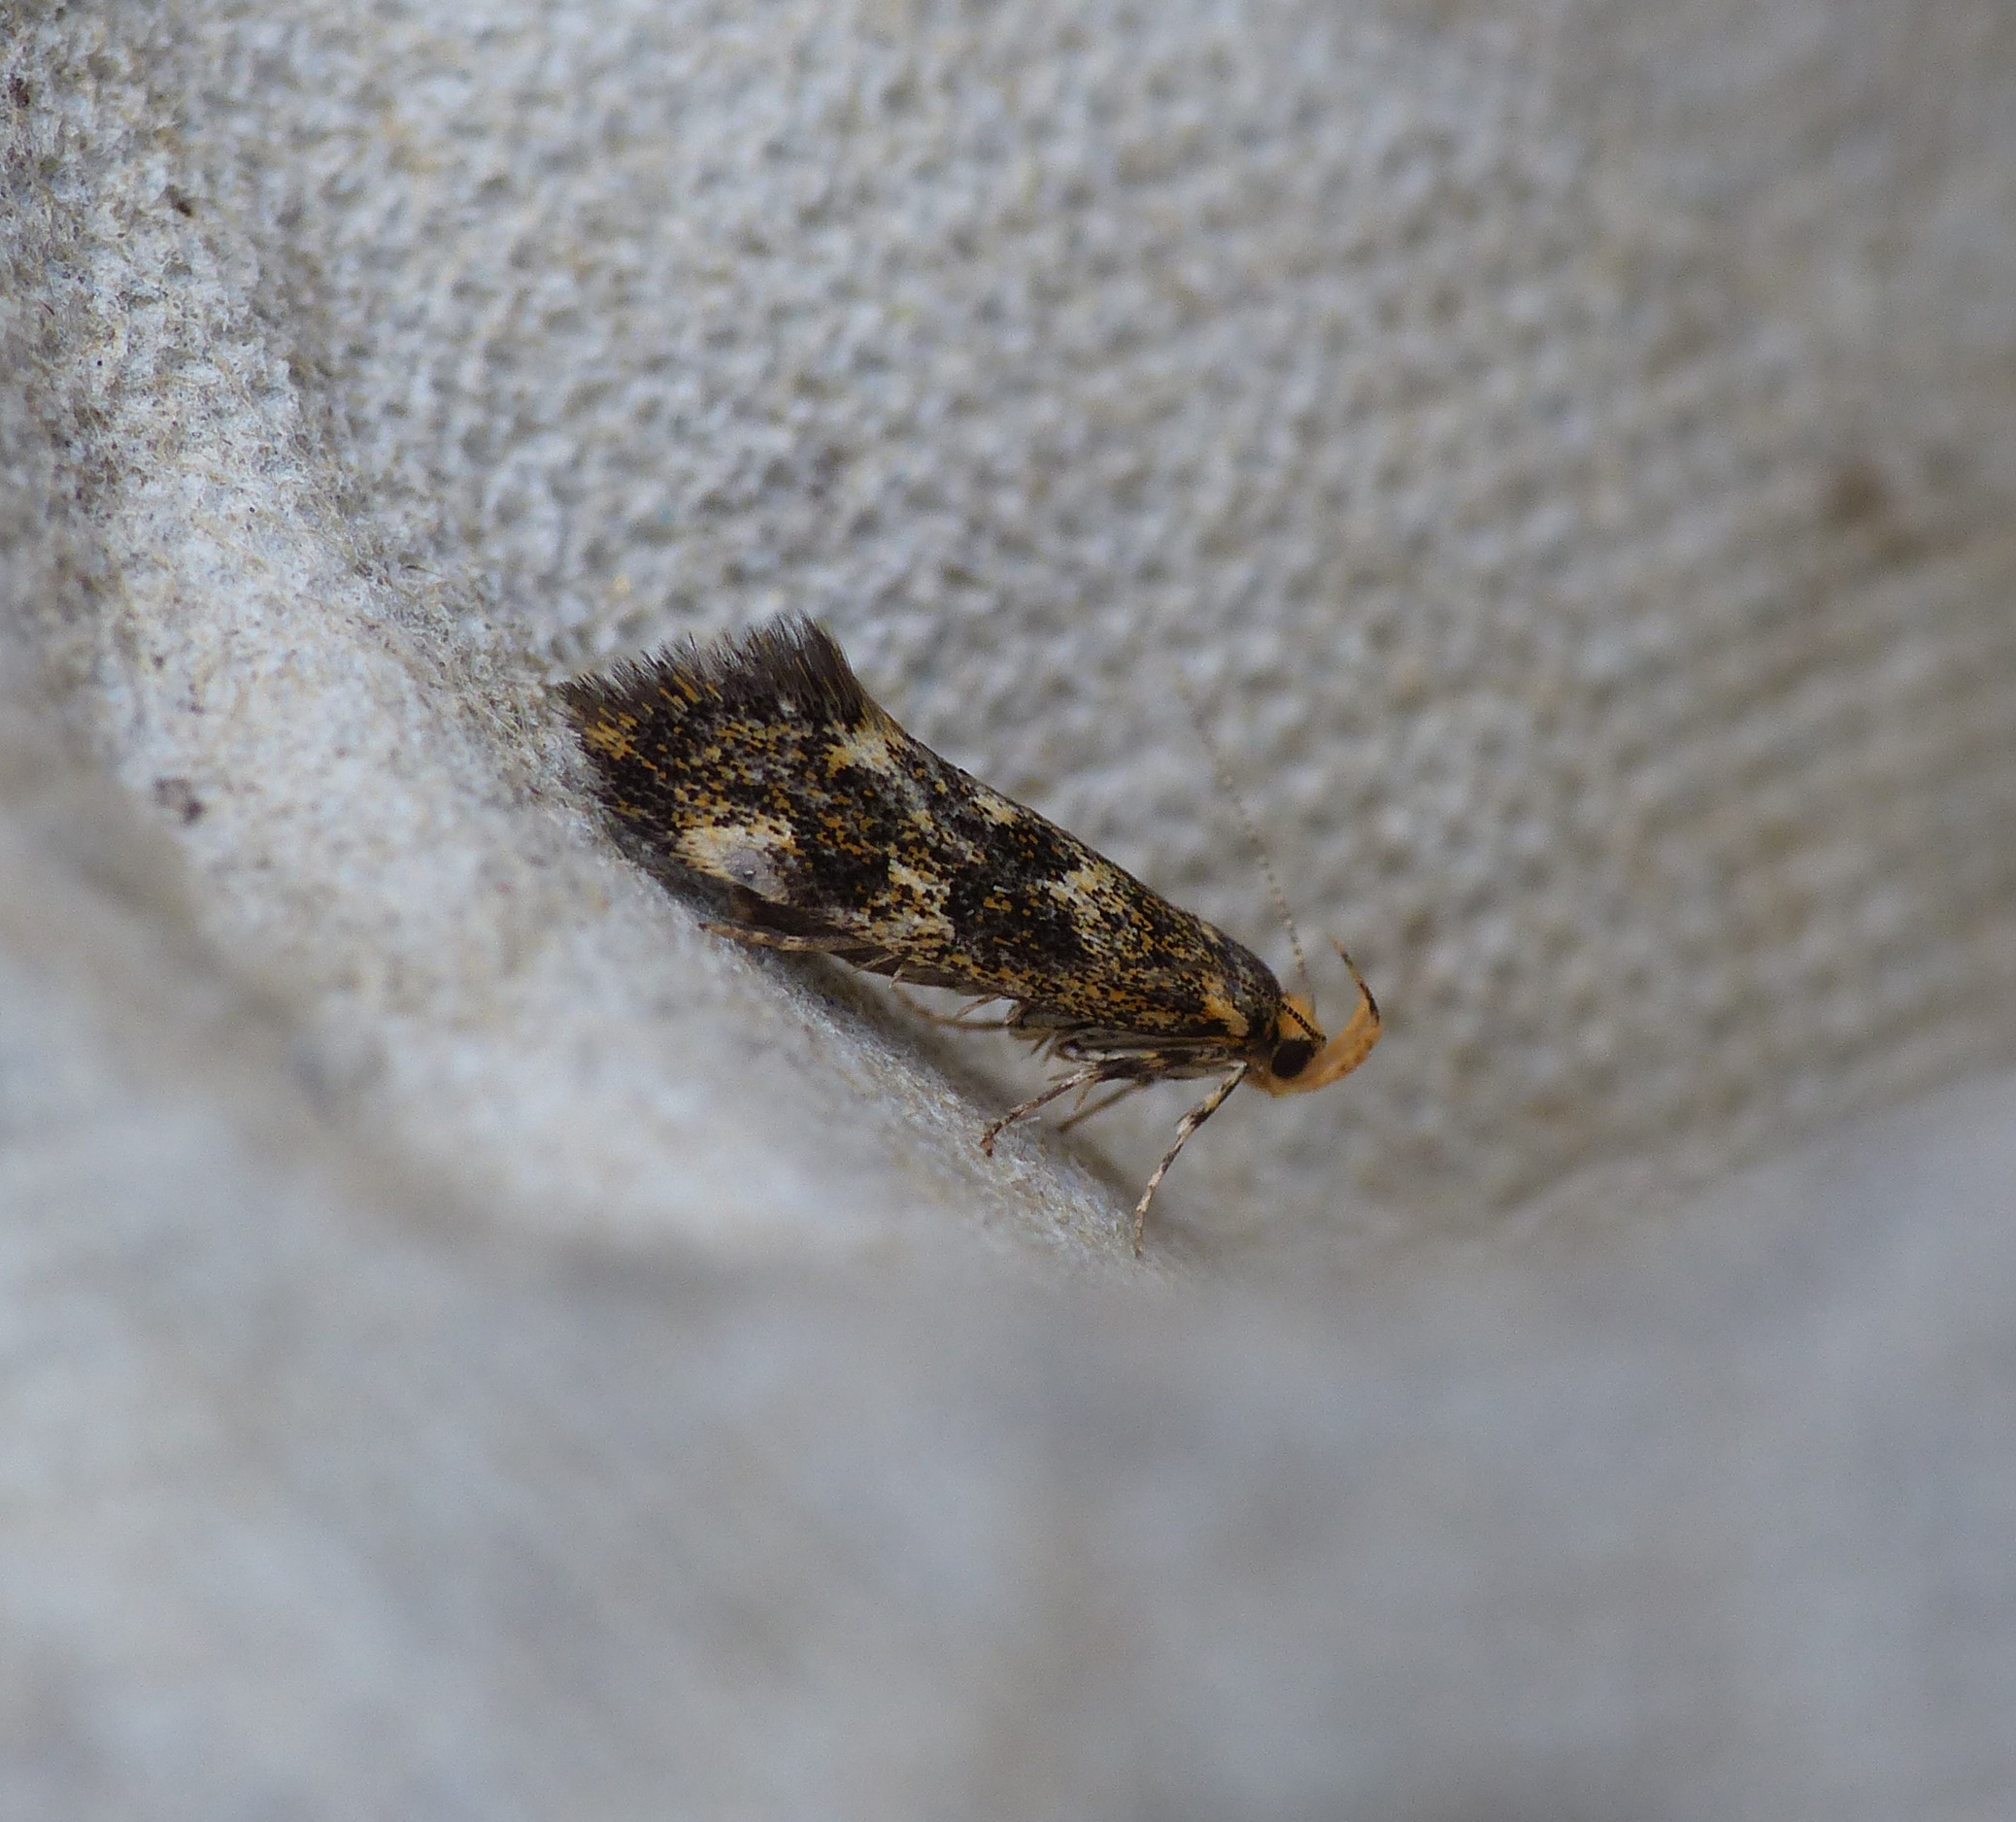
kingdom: Animalia
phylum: Arthropoda
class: Insecta
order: Lepidoptera
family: Oecophoridae
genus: Denisia
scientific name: Denisia luticiliella
